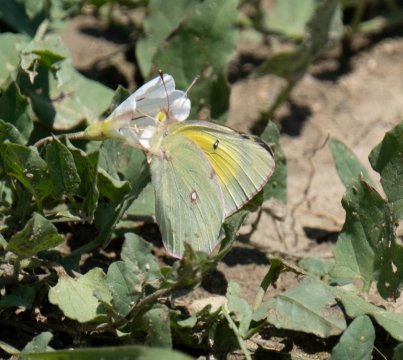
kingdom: Animalia
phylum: Arthropoda
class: Insecta
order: Lepidoptera
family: Pieridae
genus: Colias
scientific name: Colias eurytheme
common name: Orange Sulphur
